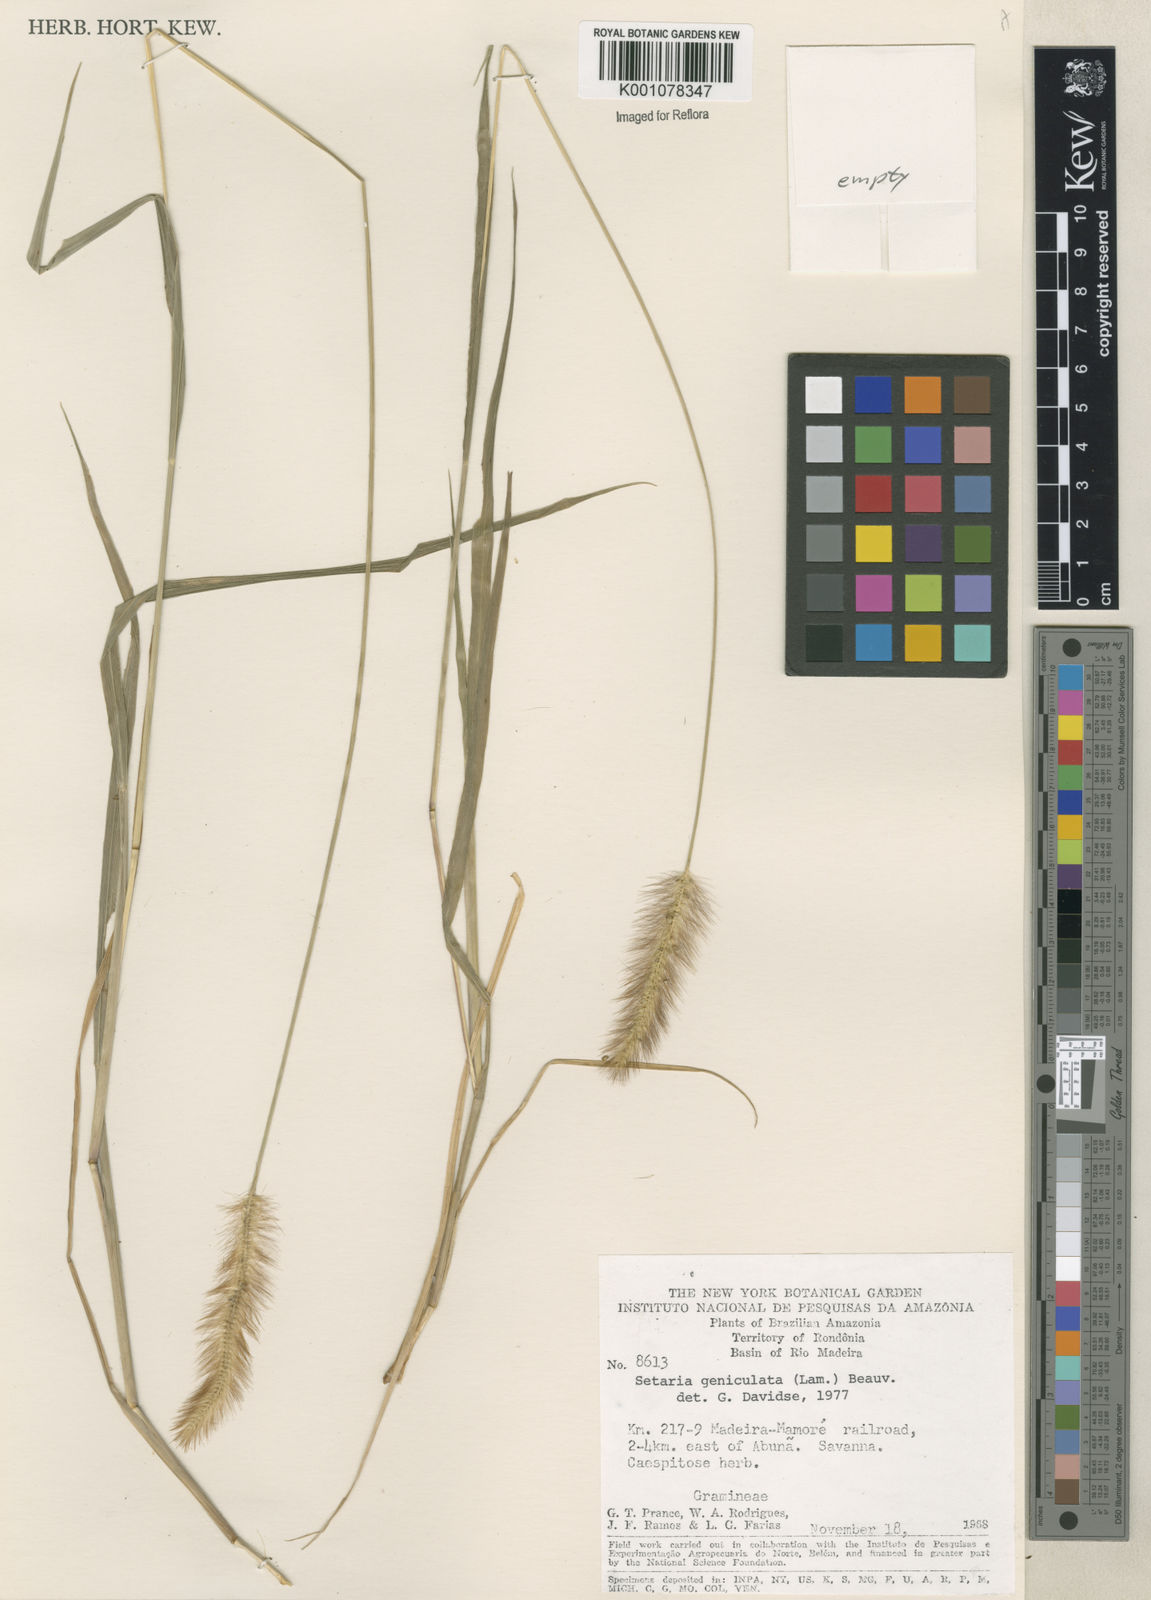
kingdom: Plantae
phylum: Tracheophyta
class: Liliopsida
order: Poales
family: Poaceae
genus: Setaria
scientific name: Setaria parviflora
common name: Knotroot bristle-grass
